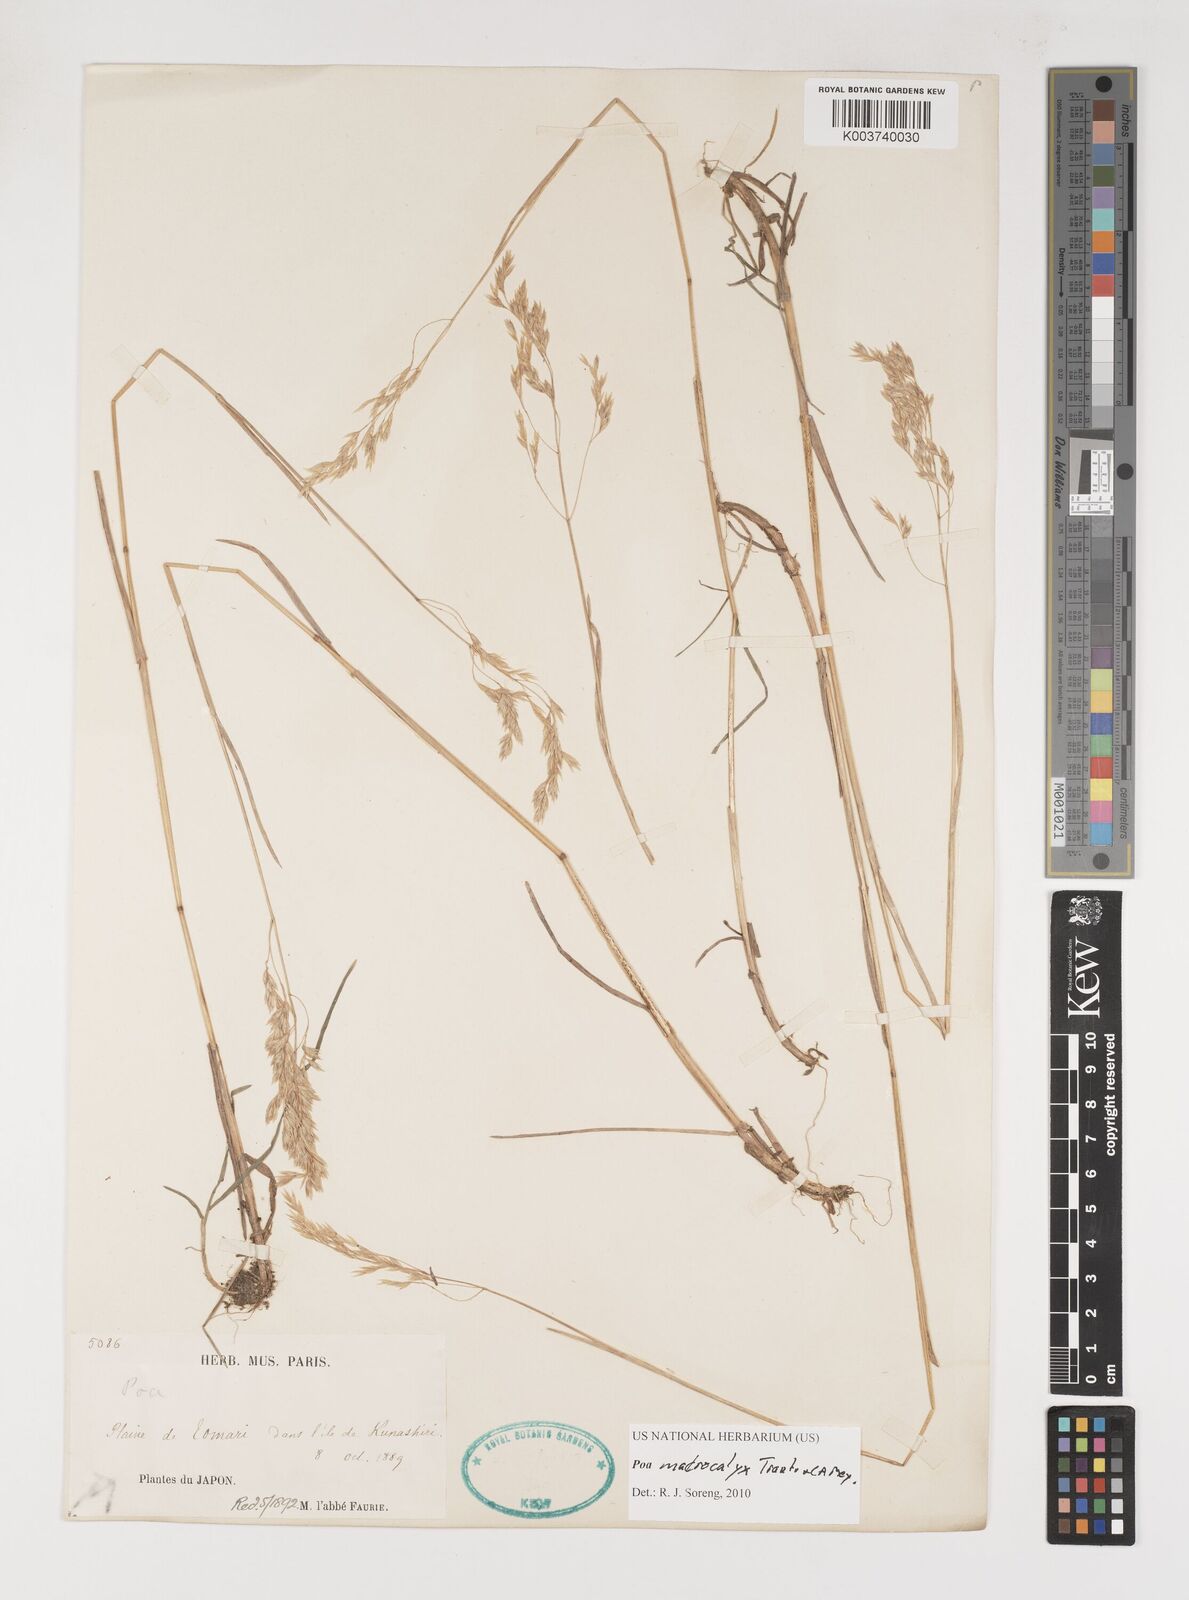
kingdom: Plantae
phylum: Tracheophyta
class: Liliopsida
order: Poales
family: Poaceae
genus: Poa
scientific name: Poa macrocalyx
